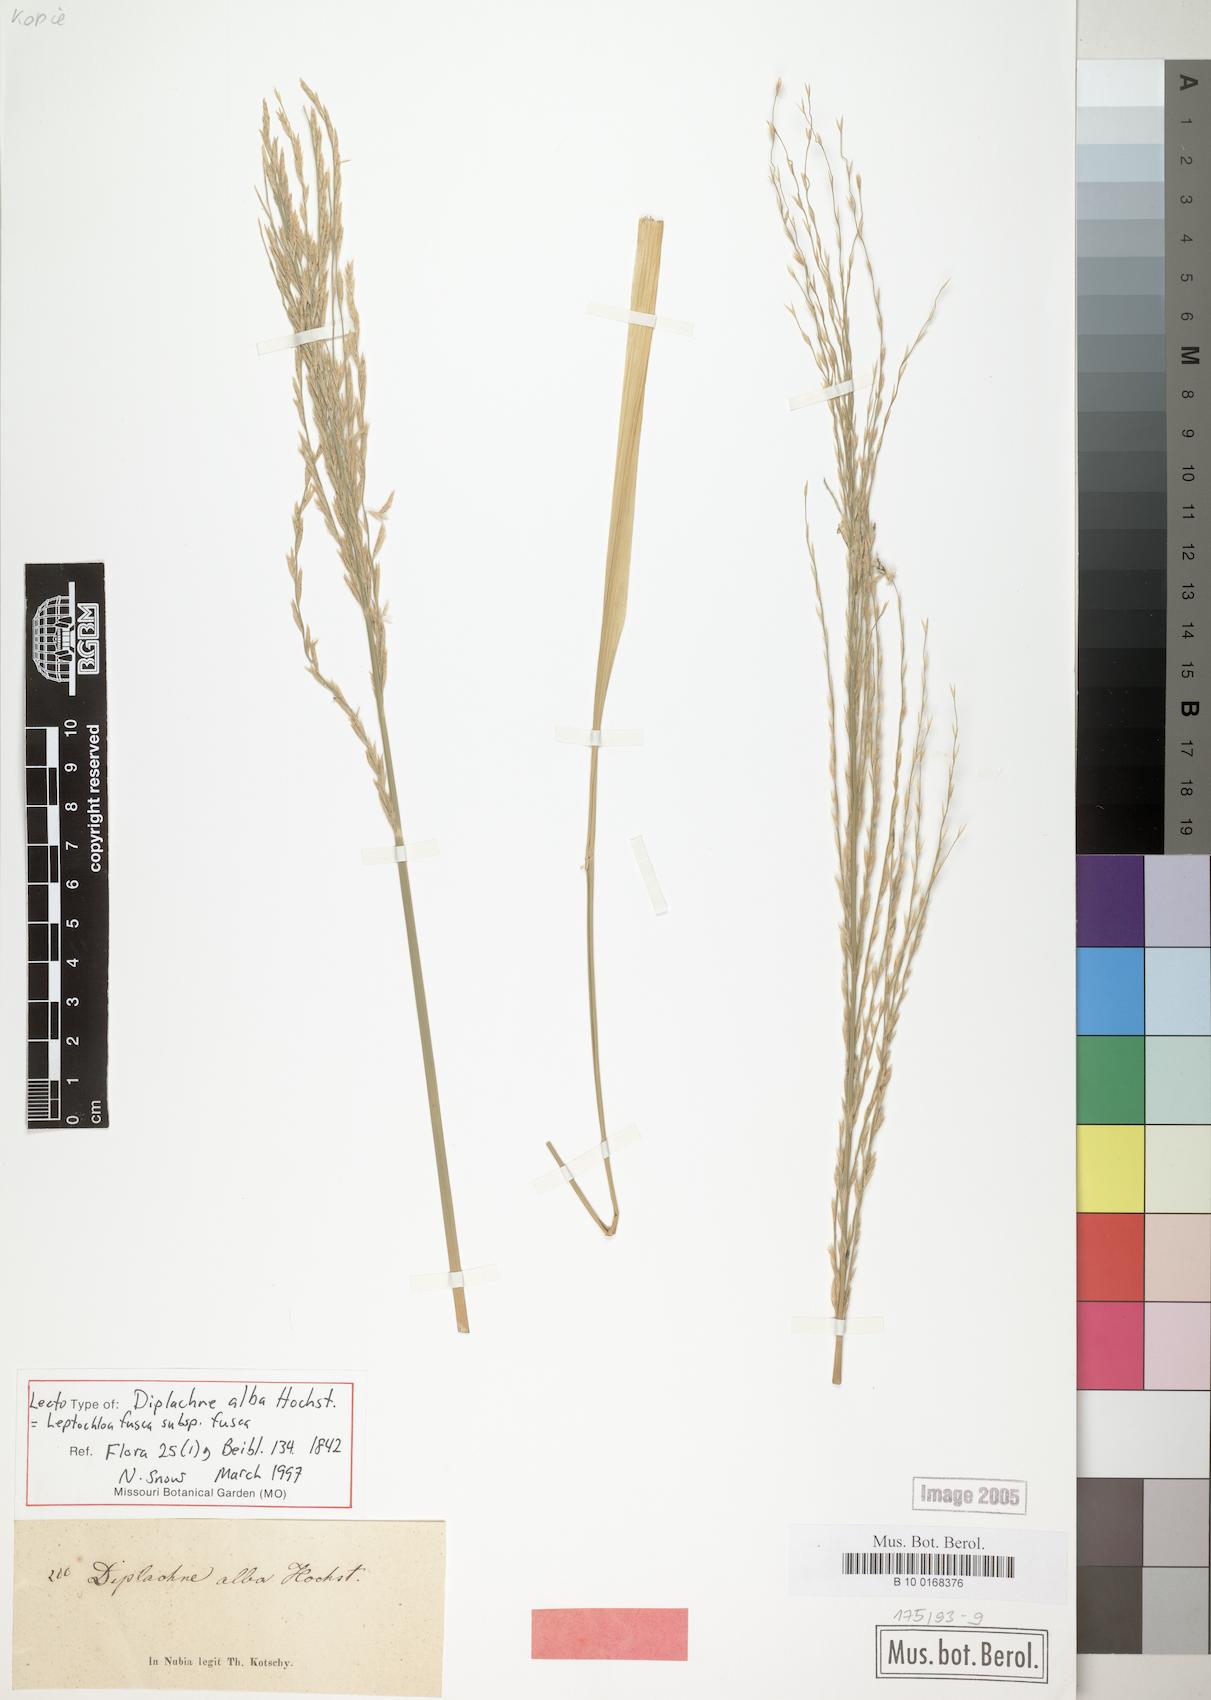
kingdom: Plantae
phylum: Tracheophyta
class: Liliopsida
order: Poales
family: Poaceae
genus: Diplachne
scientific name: Diplachne alba
